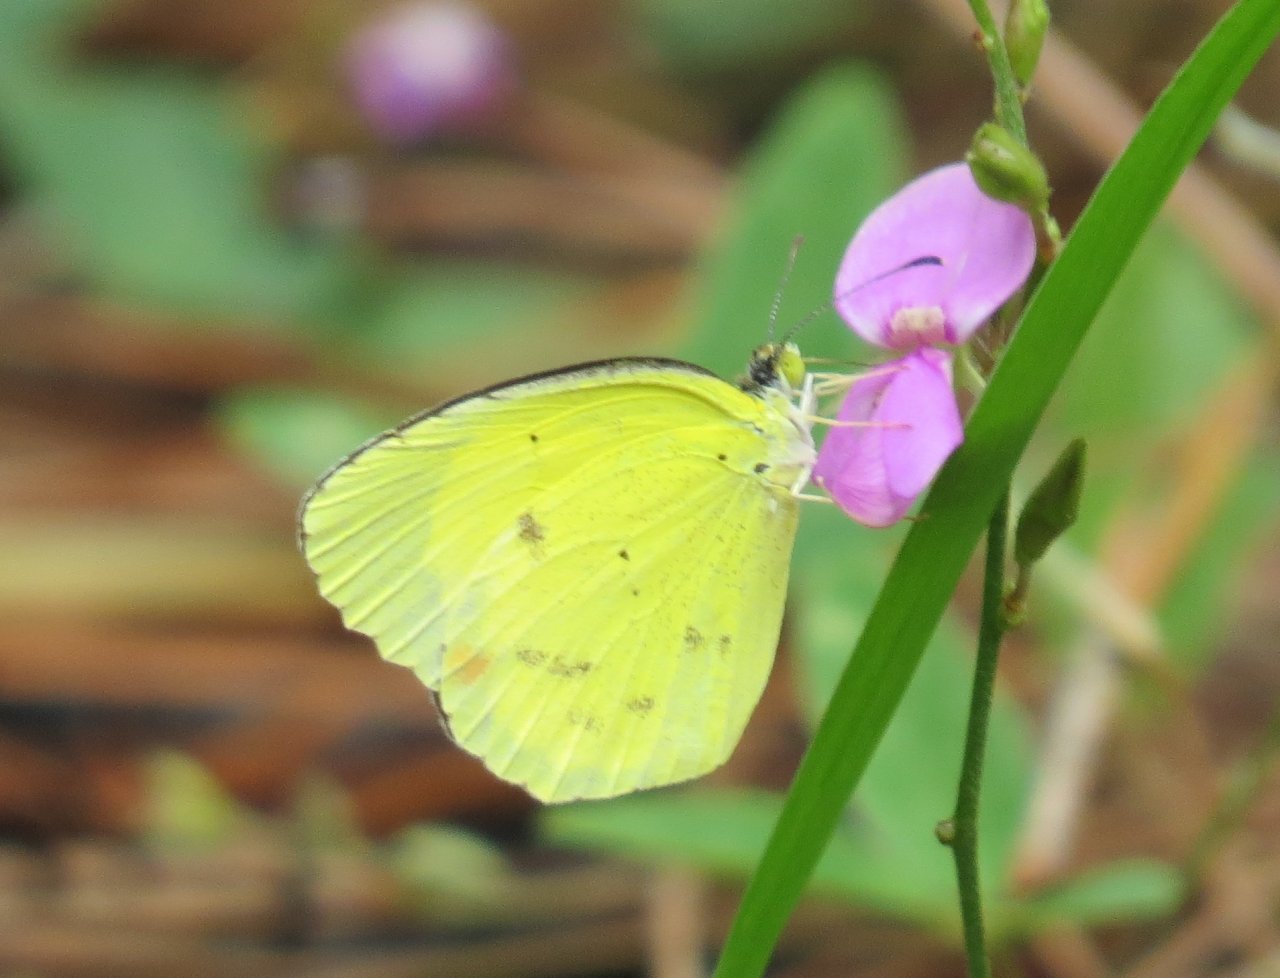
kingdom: Animalia
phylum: Arthropoda
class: Insecta
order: Lepidoptera
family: Pieridae
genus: Pyrisitia
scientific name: Pyrisitia lisa
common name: Little Yellow
